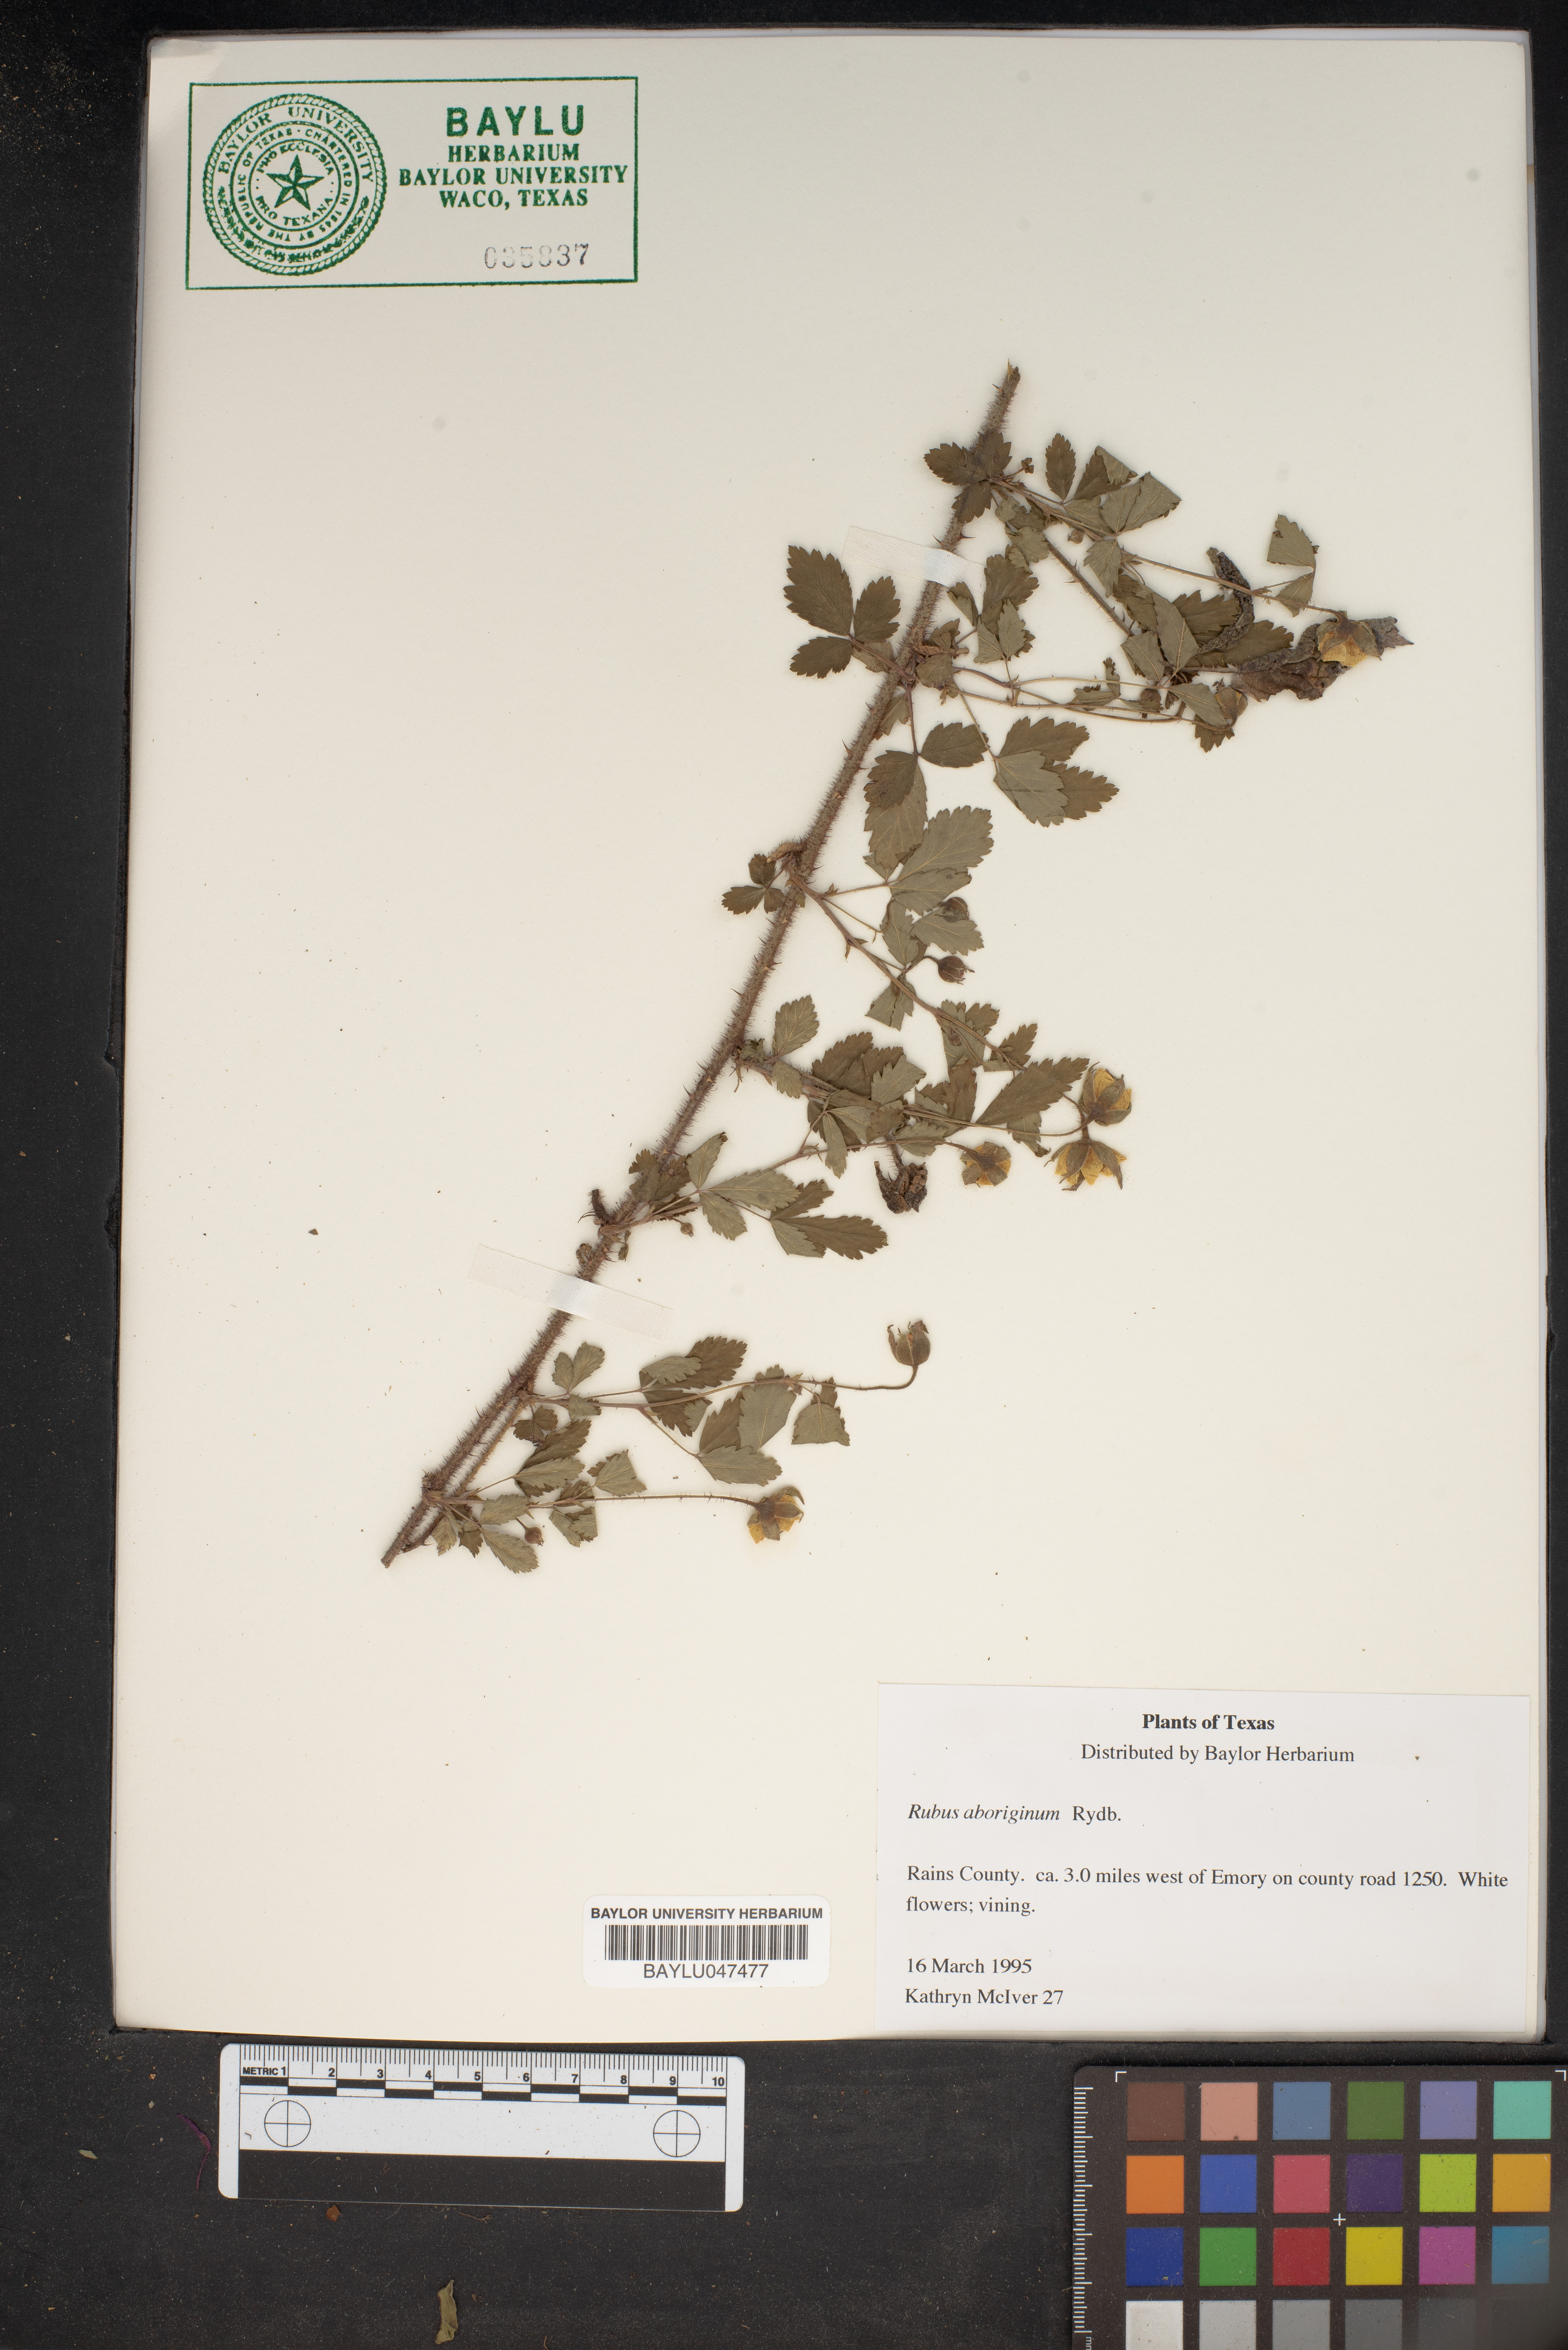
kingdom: Plantae
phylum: Tracheophyta
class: Magnoliopsida
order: Rosales
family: Rosaceae
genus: Rubus
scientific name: Rubus aboriginum
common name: Mayes dewberry
